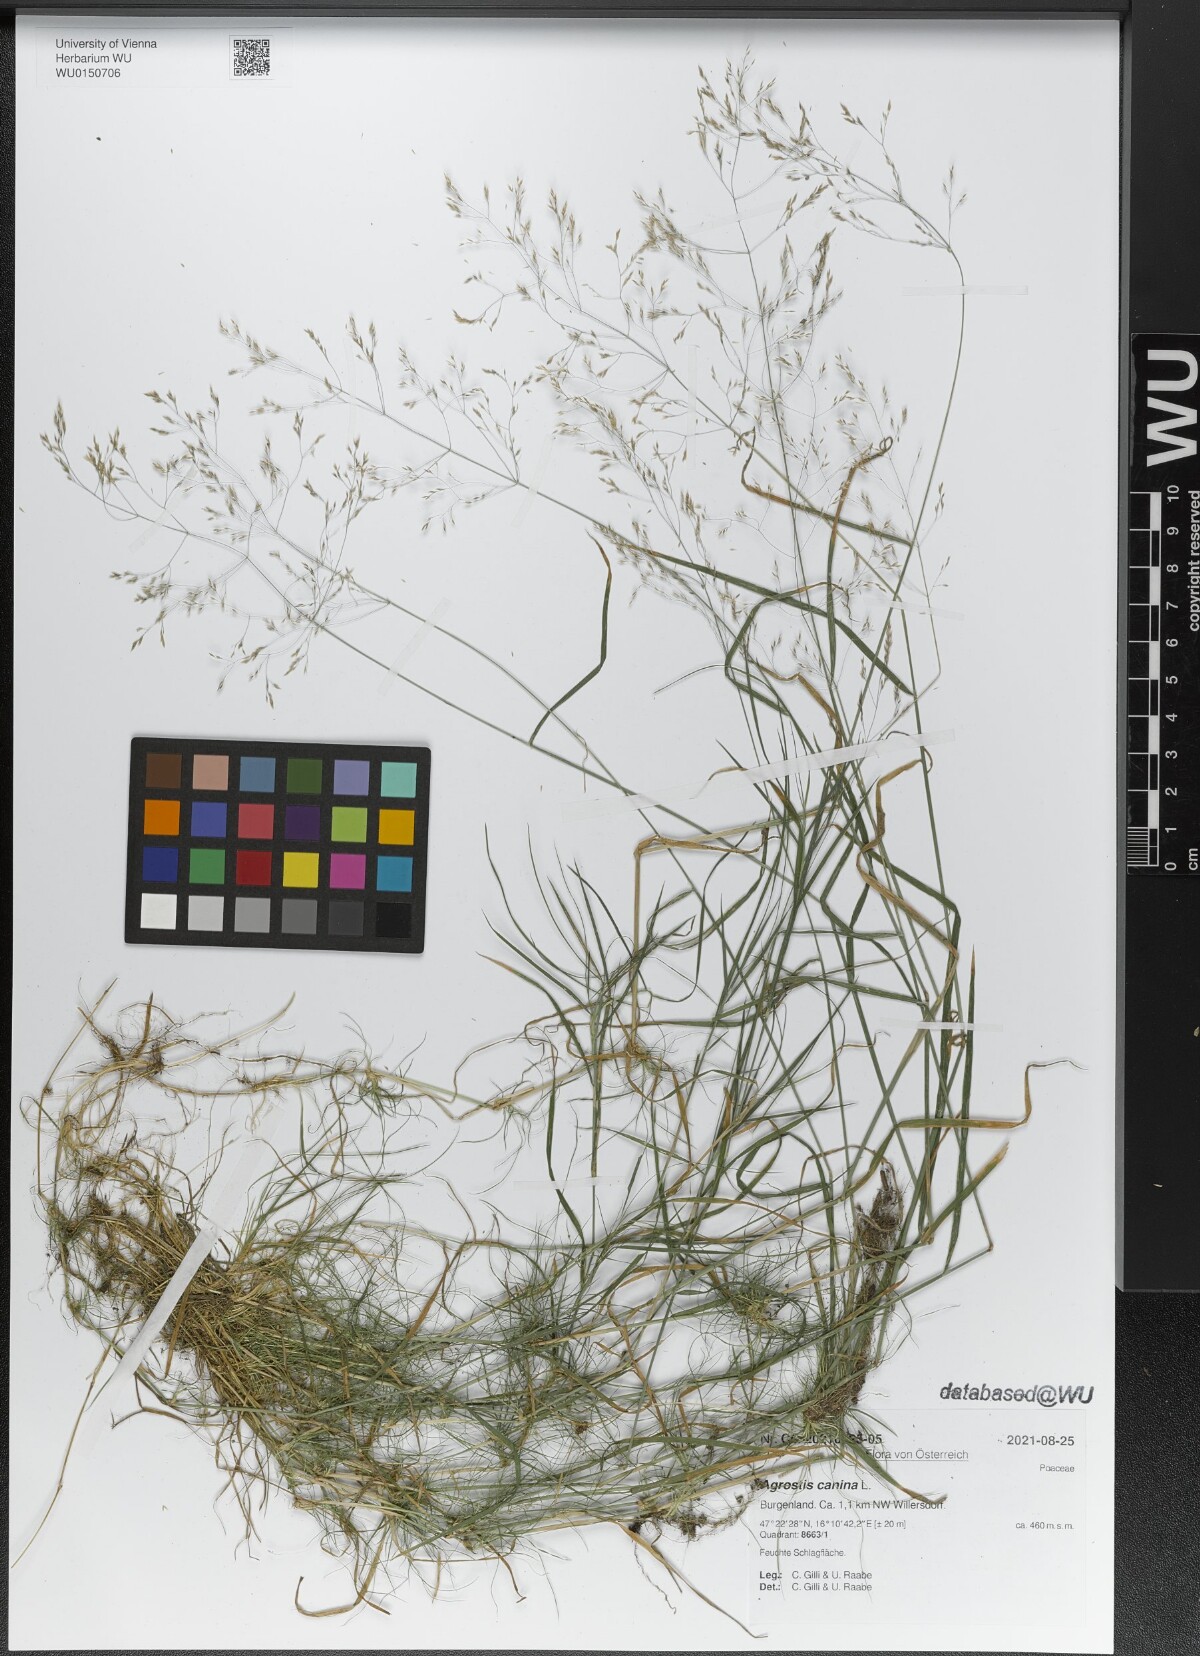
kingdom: Plantae
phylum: Tracheophyta
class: Liliopsida
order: Poales
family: Poaceae
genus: Agrostis
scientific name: Agrostis canina
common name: Velvet bent
